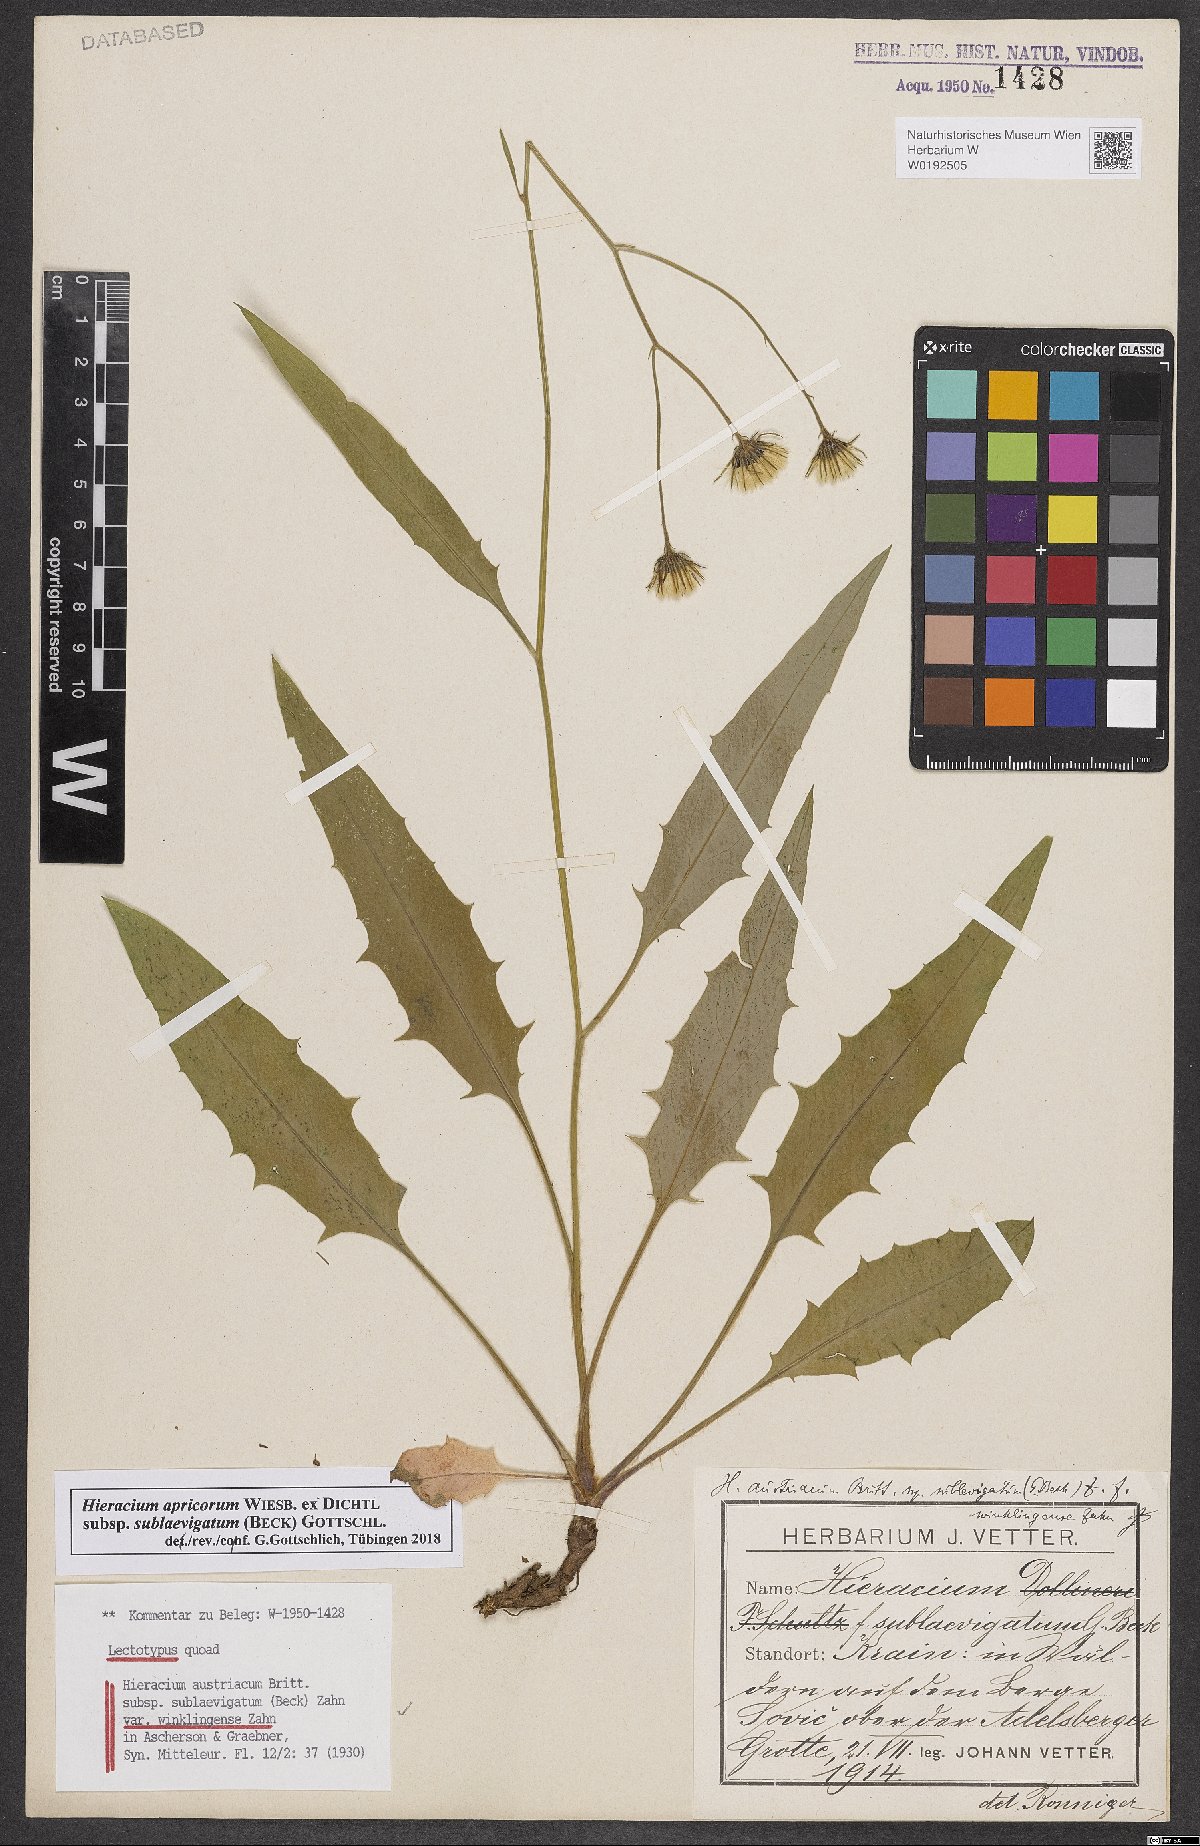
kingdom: Plantae
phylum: Tracheophyta
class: Magnoliopsida
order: Asterales
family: Asteraceae
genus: Hieracium
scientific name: Hieracium austriacum
